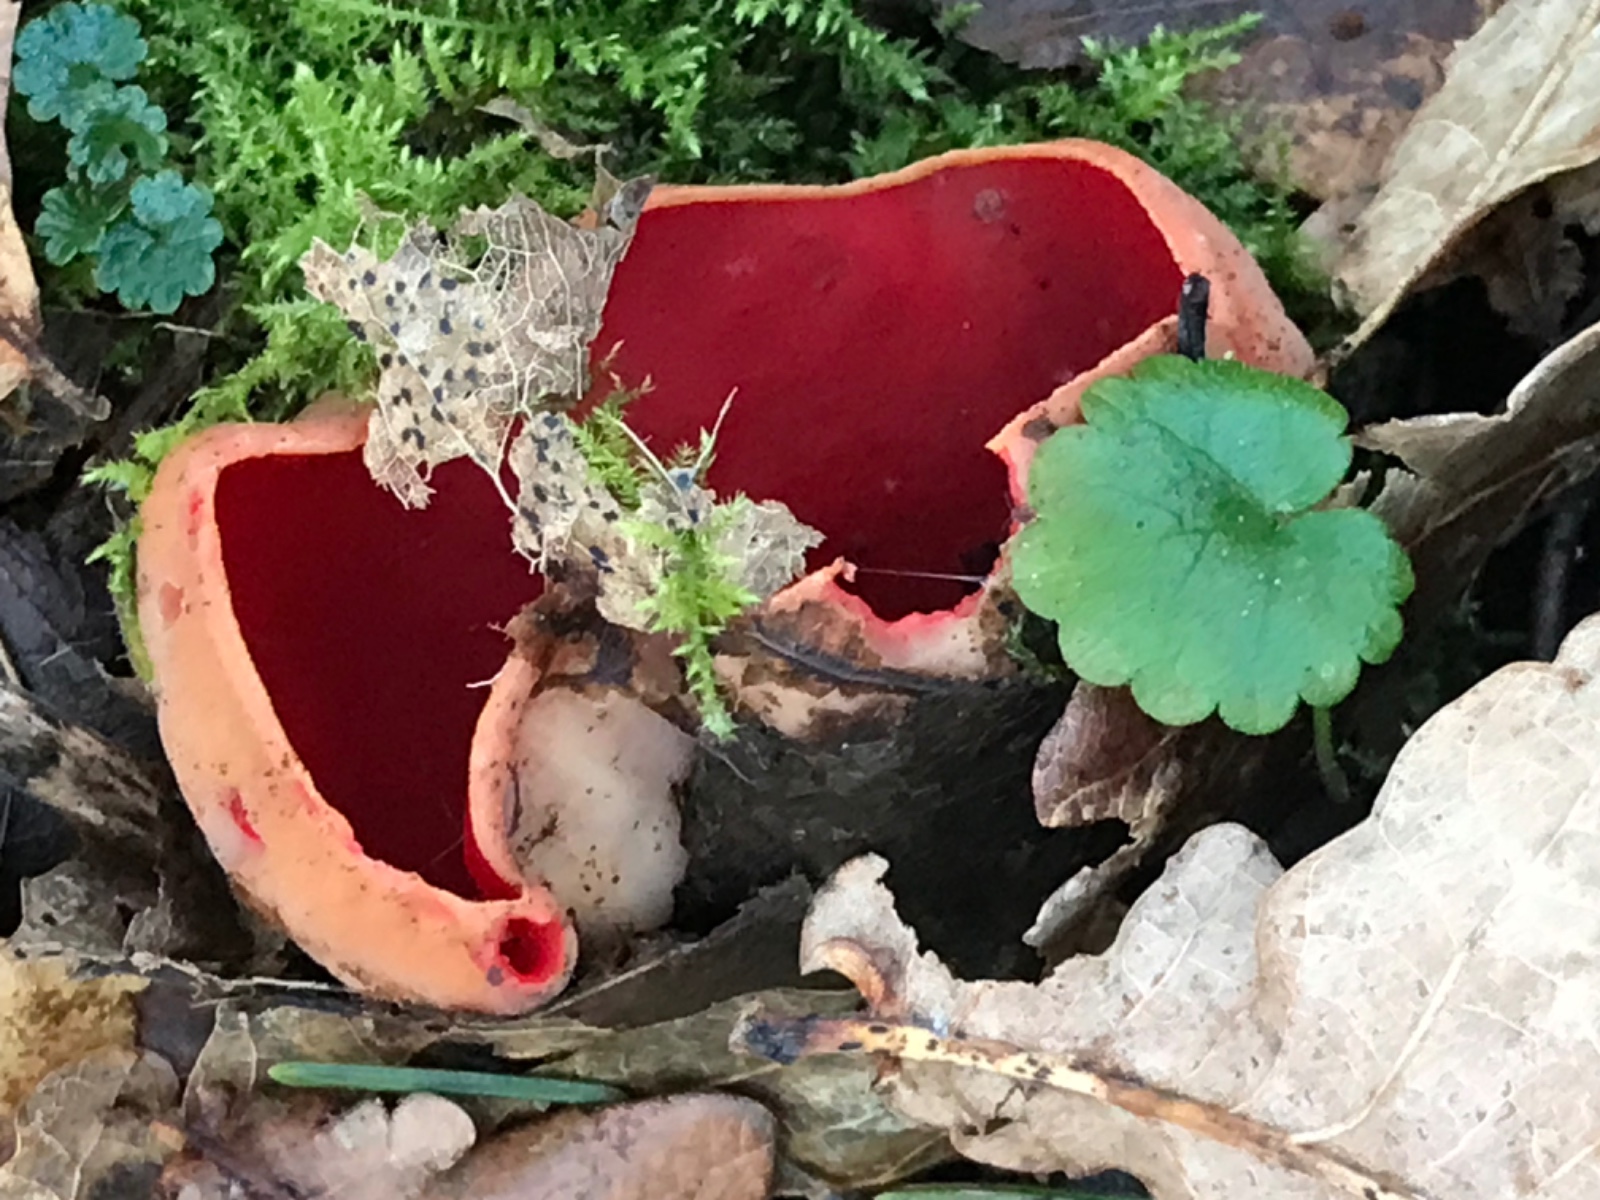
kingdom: Fungi
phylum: Ascomycota
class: Pezizomycetes
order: Pezizales
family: Sarcoscyphaceae
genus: Sarcoscypha
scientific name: Sarcoscypha austriaca
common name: krølhåret pragtbæger
